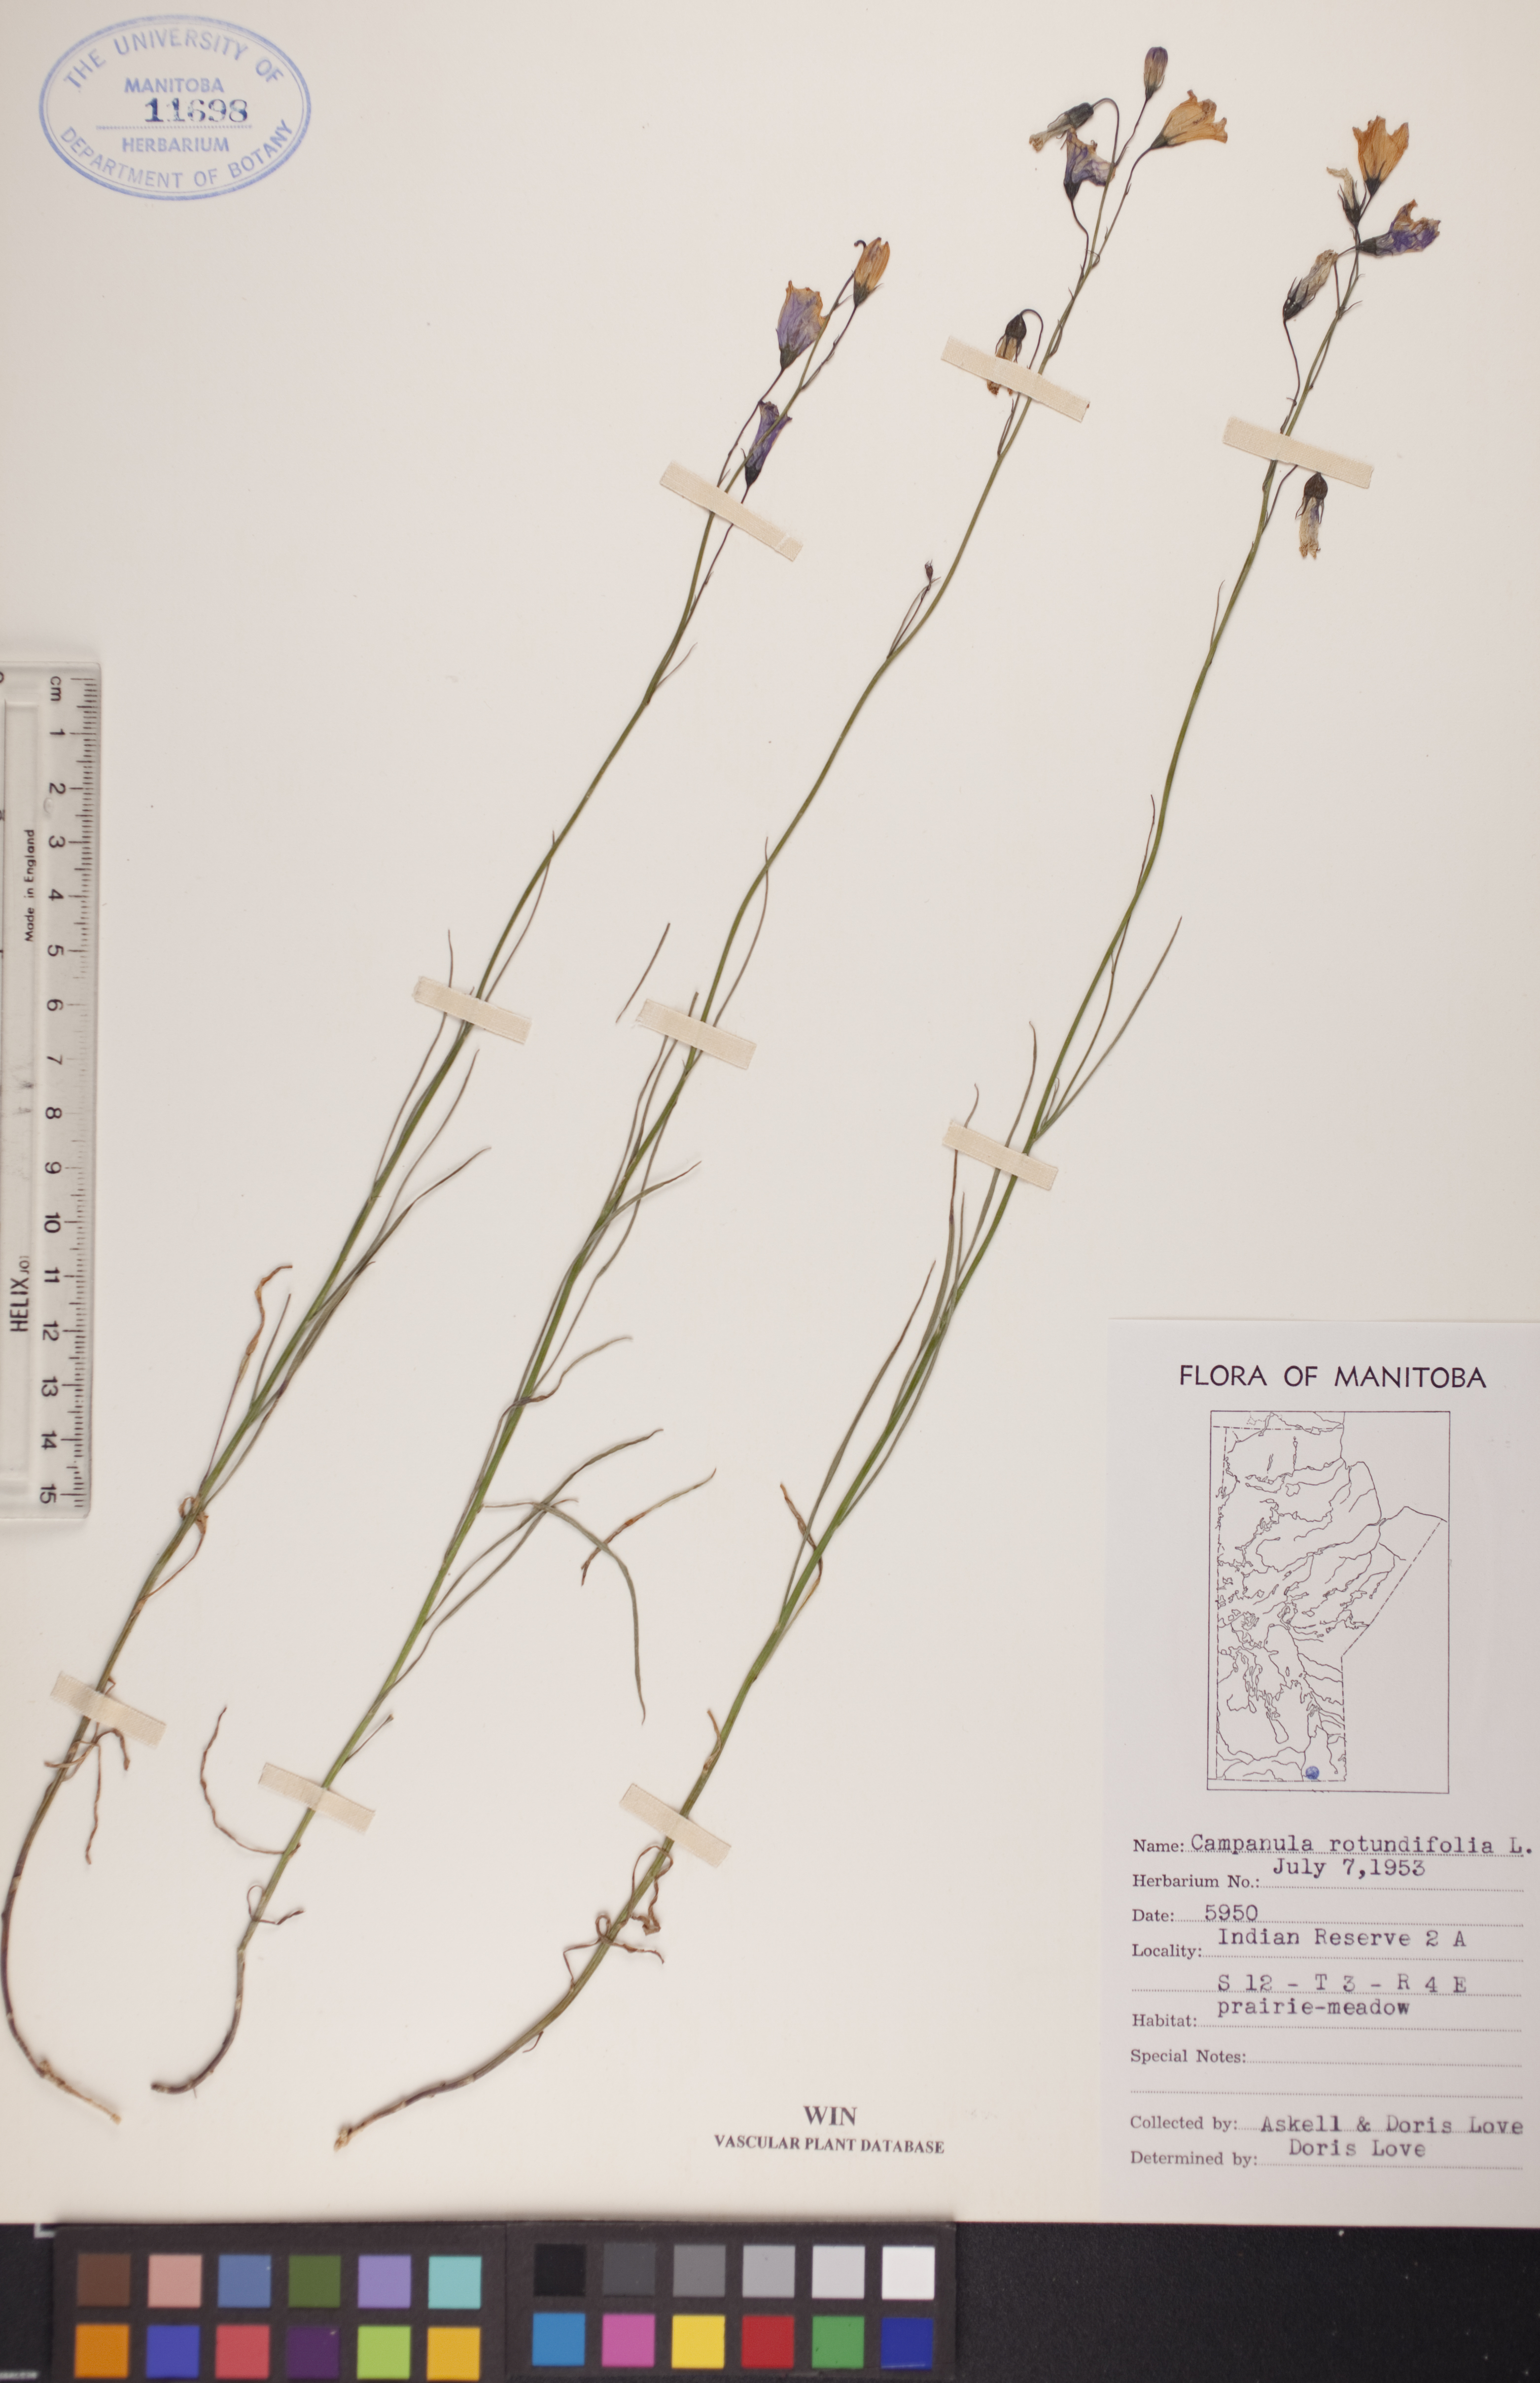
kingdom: Plantae
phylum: Tracheophyta
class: Magnoliopsida
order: Asterales
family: Campanulaceae
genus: Campanula
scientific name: Campanula rotundifolia
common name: Harebell
